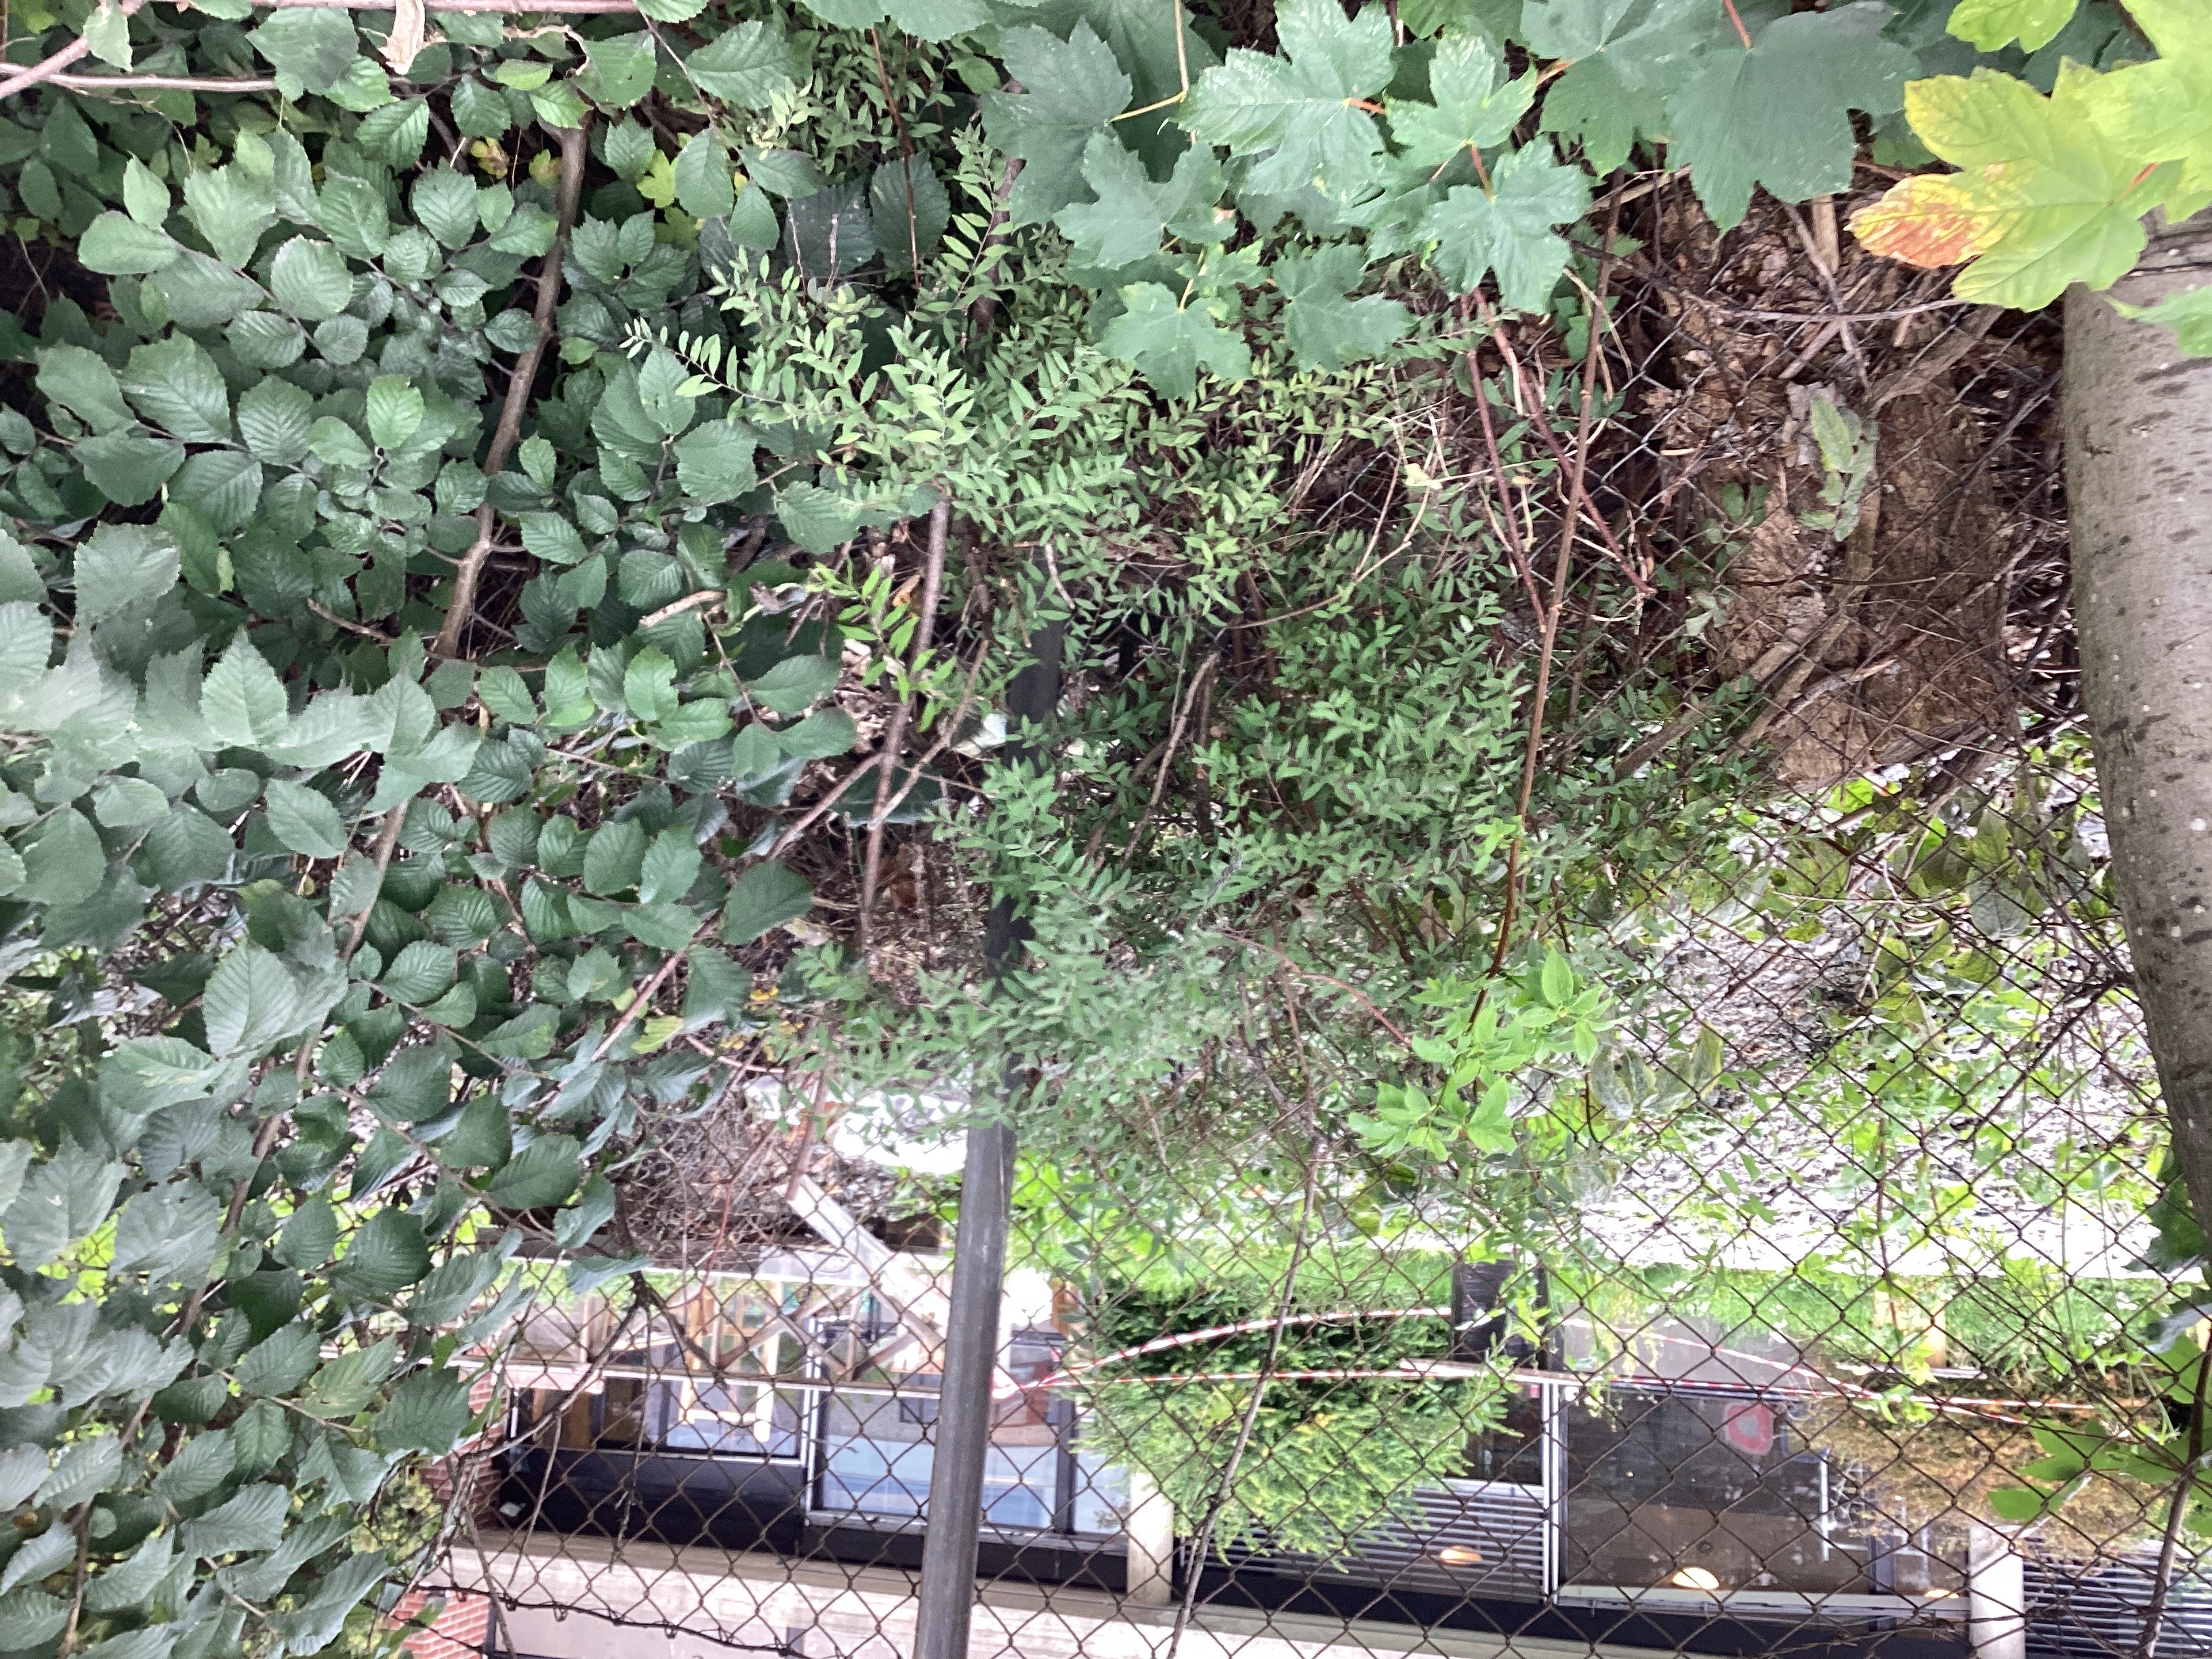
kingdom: Plantae
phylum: Tracheophyta
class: Magnoliopsida
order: Rosales
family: Rosaceae
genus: Spiraea
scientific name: Spiraea cinerea
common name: gråspirea
